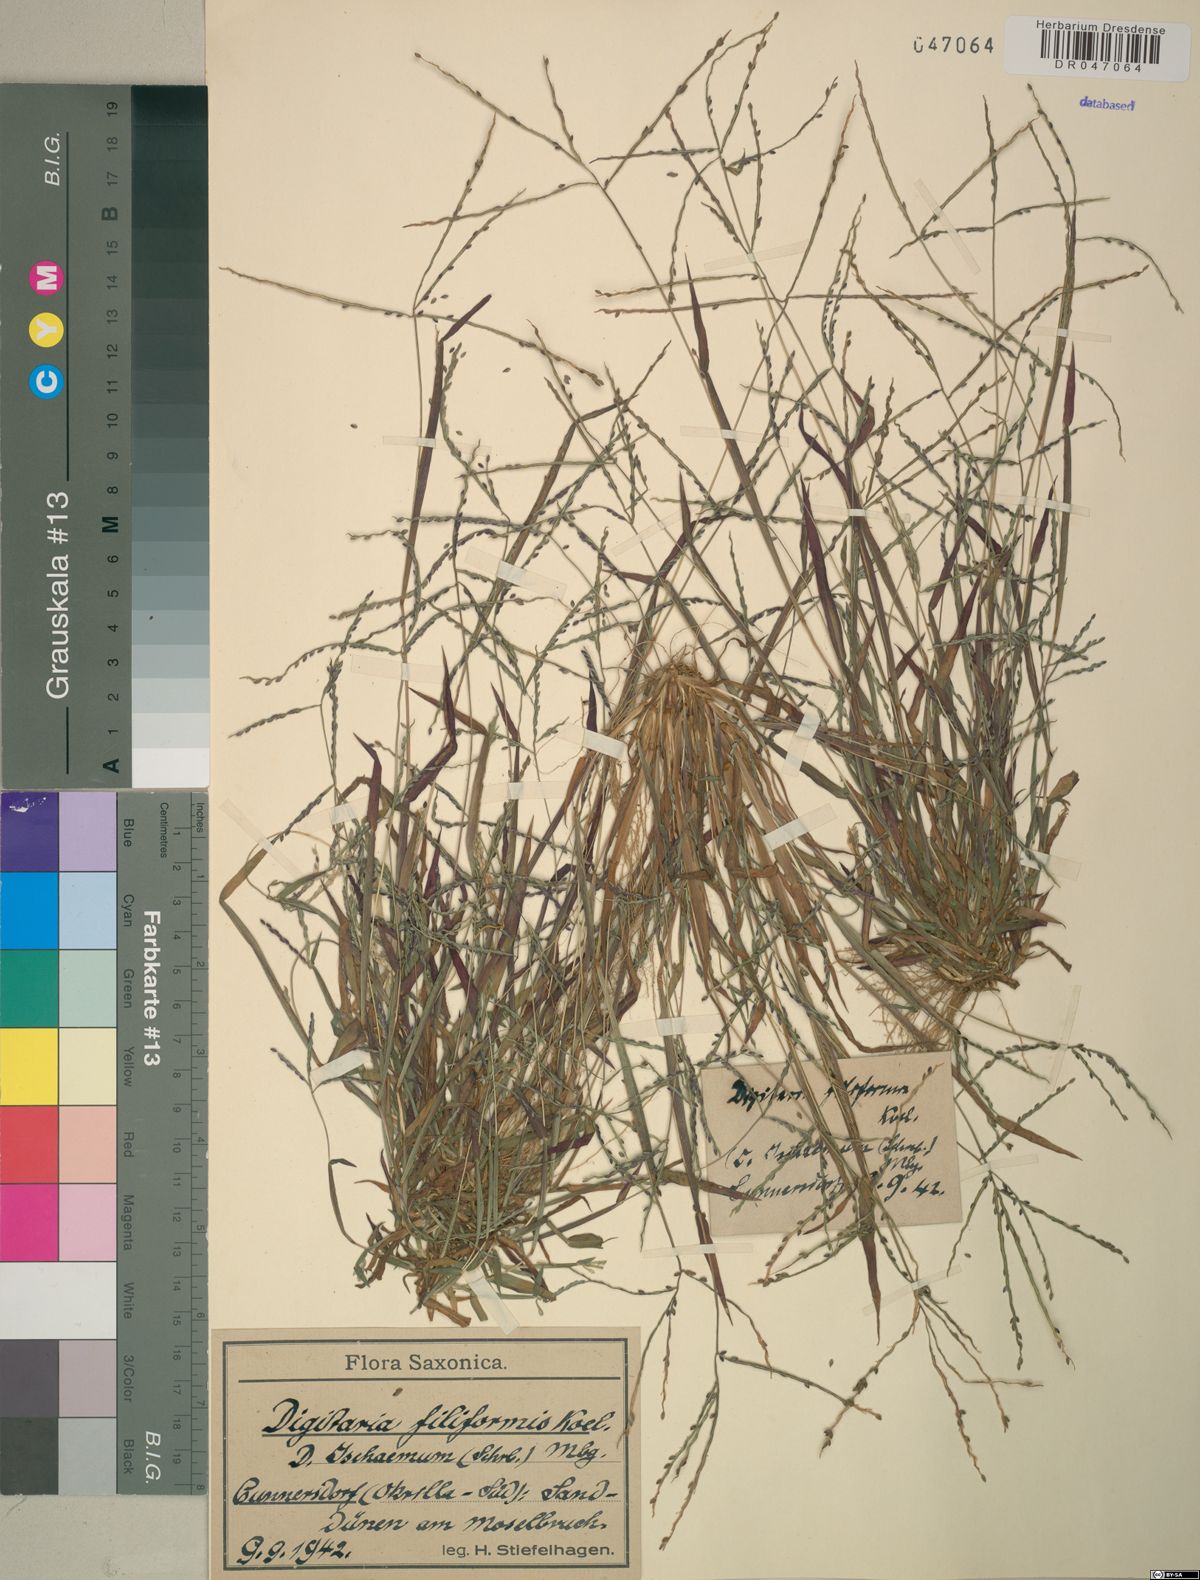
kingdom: Plantae
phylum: Tracheophyta
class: Liliopsida
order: Poales
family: Poaceae
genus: Digitaria
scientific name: Digitaria filiformis
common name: Slender crabgrass
